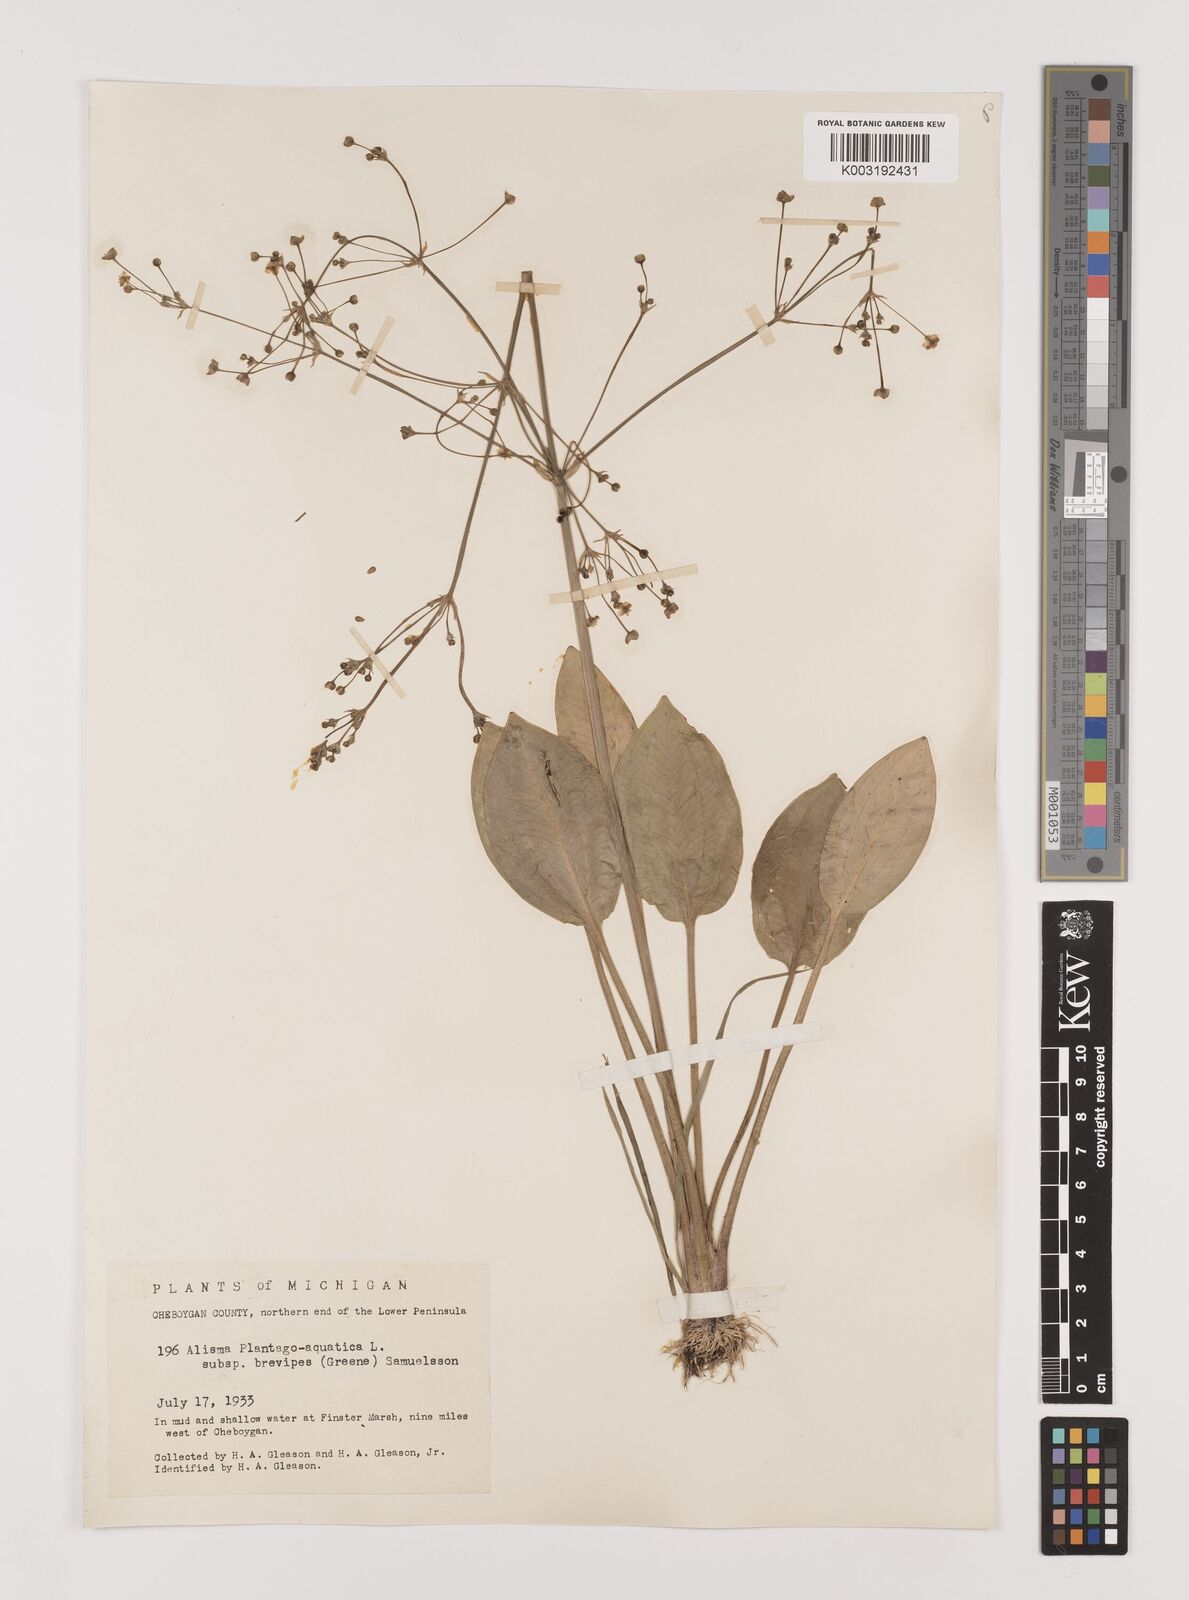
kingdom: Plantae
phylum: Tracheophyta
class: Liliopsida
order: Alismatales
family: Alismataceae
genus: Alisma
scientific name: Alisma triviale
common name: Northern water-plantain
